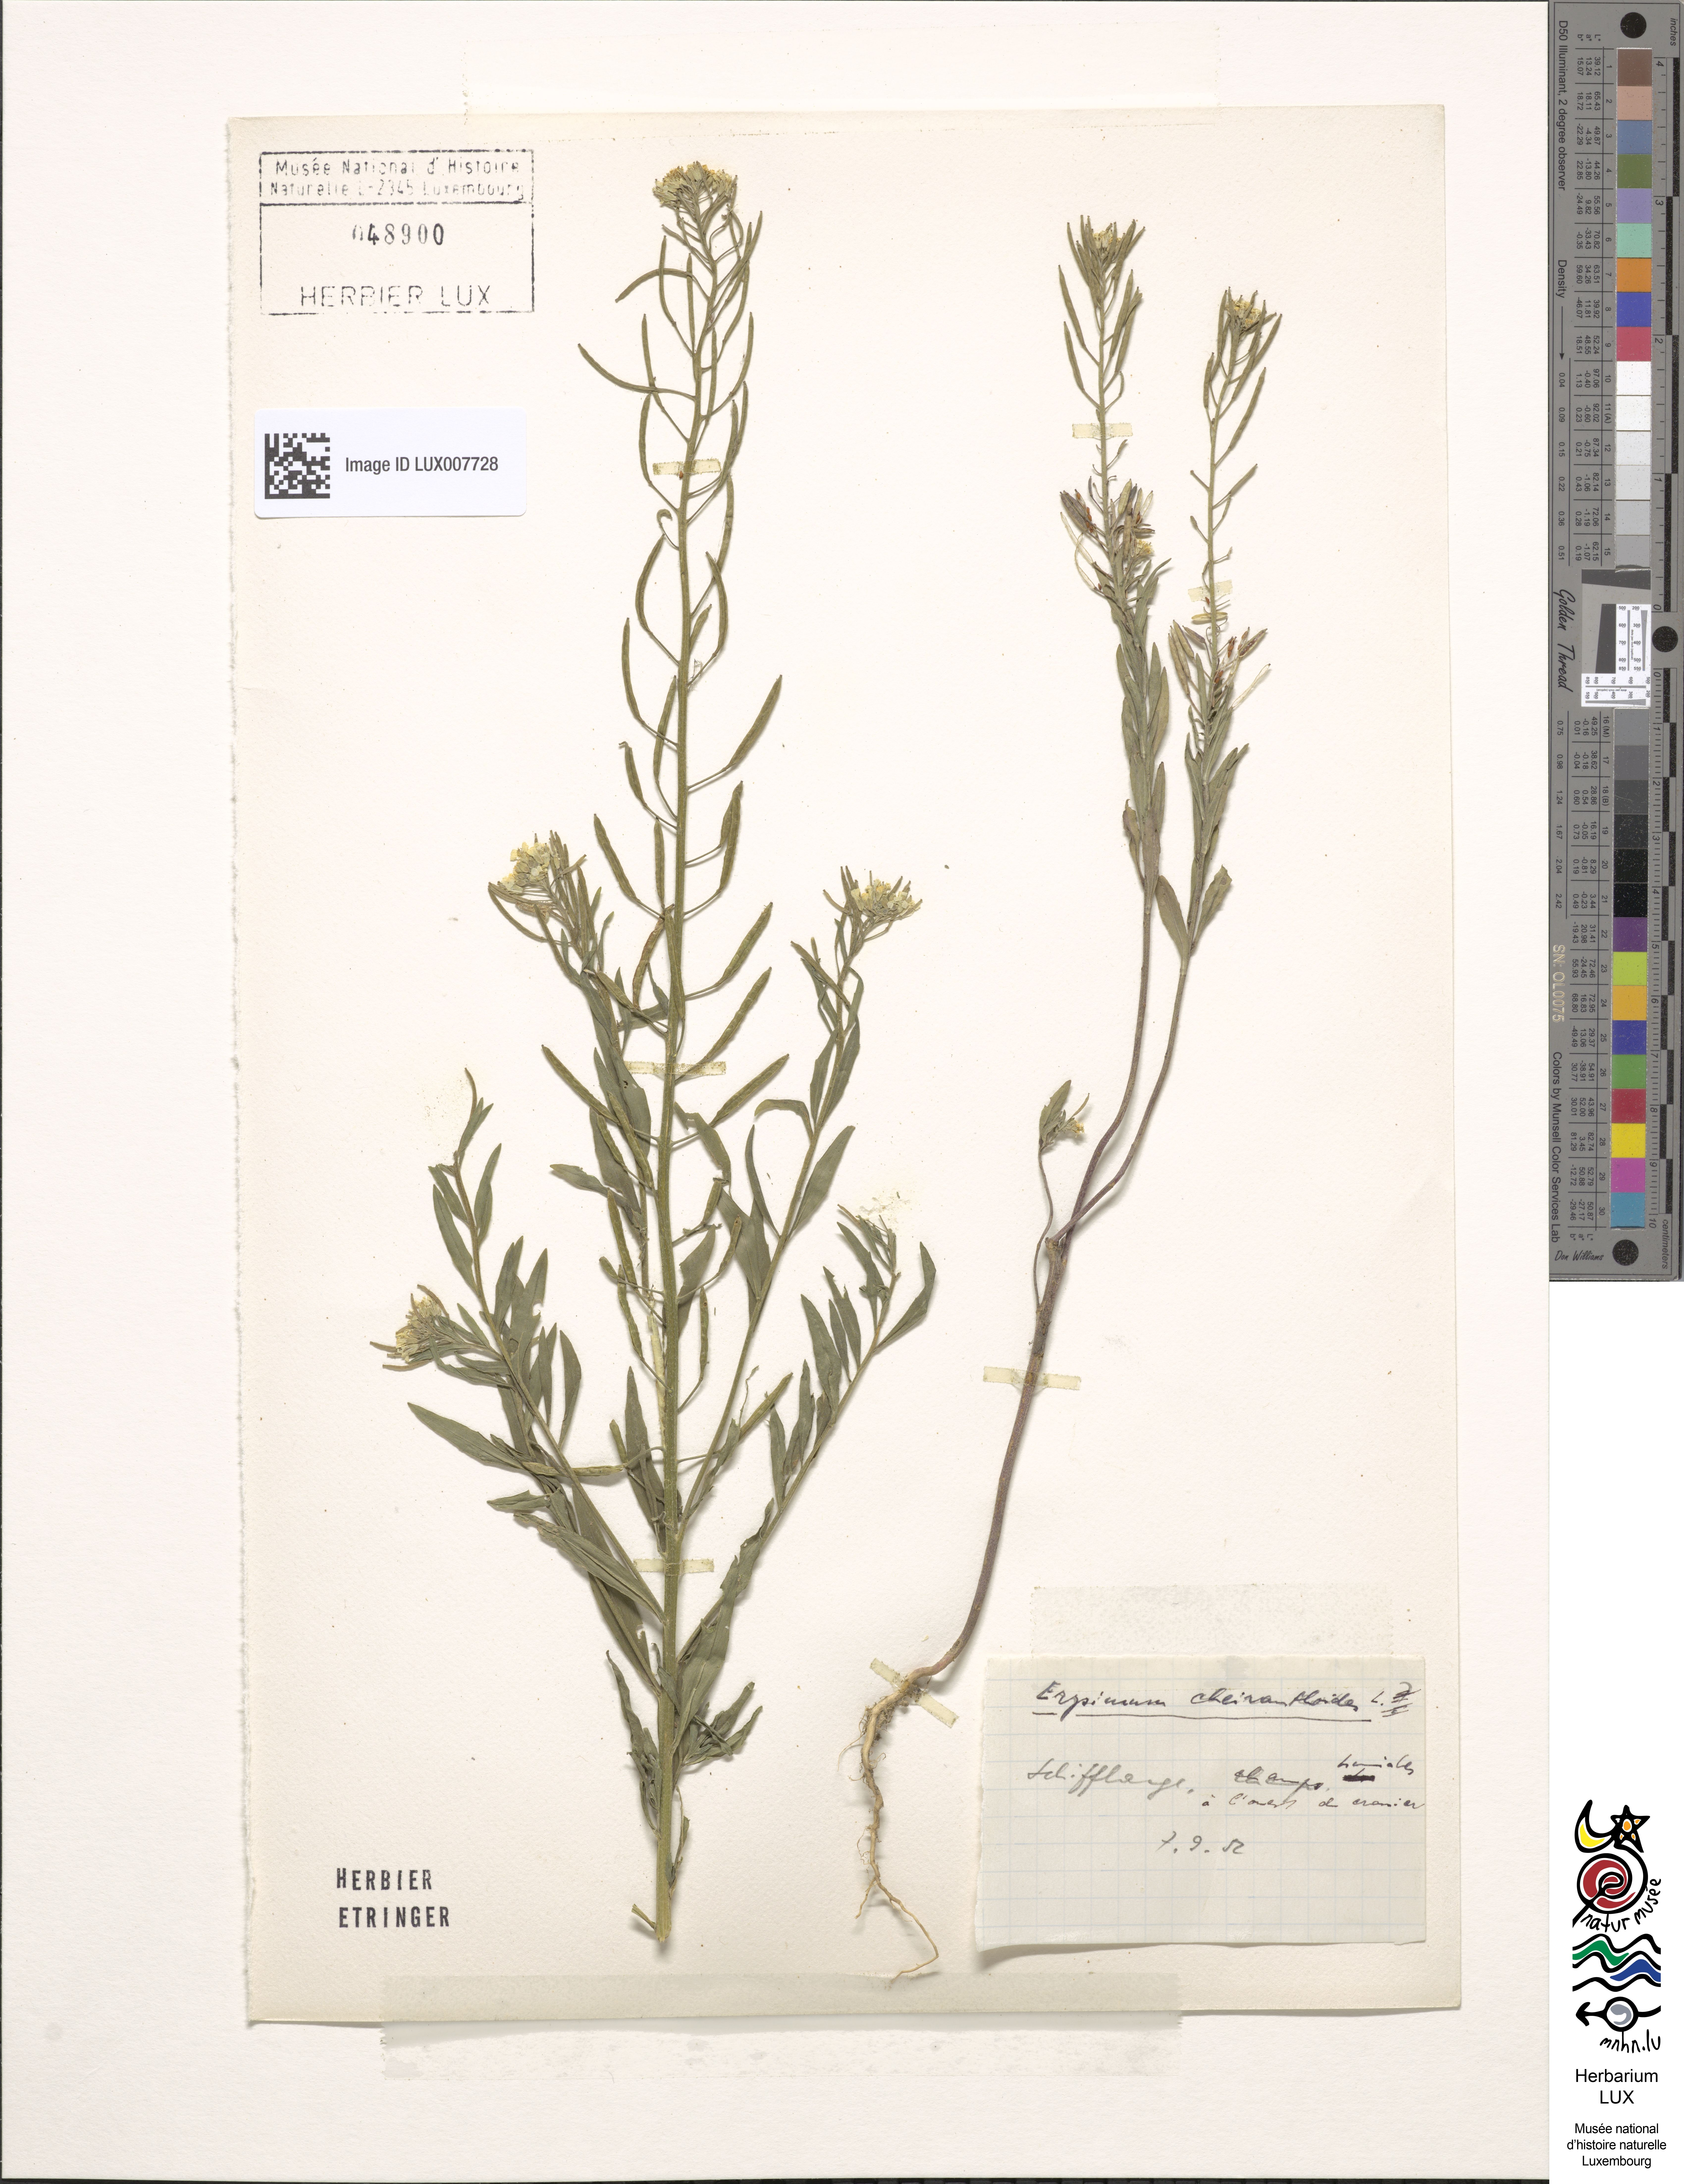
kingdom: Plantae
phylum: Tracheophyta
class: Magnoliopsida
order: Brassicales
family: Brassicaceae
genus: Erysimum
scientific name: Erysimum cheiranthoides
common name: Treacle mustard
